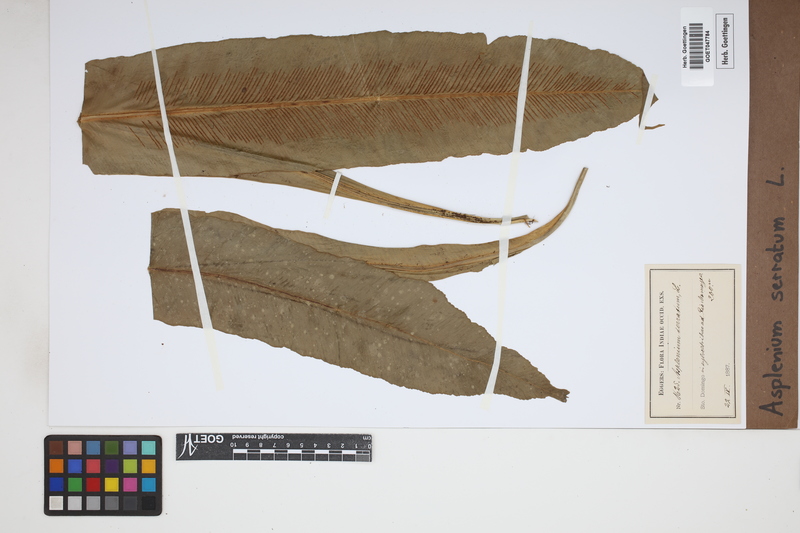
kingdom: Plantae
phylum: Tracheophyta
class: Polypodiopsida
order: Polypodiales
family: Aspleniaceae
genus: Asplenium
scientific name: Asplenium serratum
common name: Wild birdnest fern
